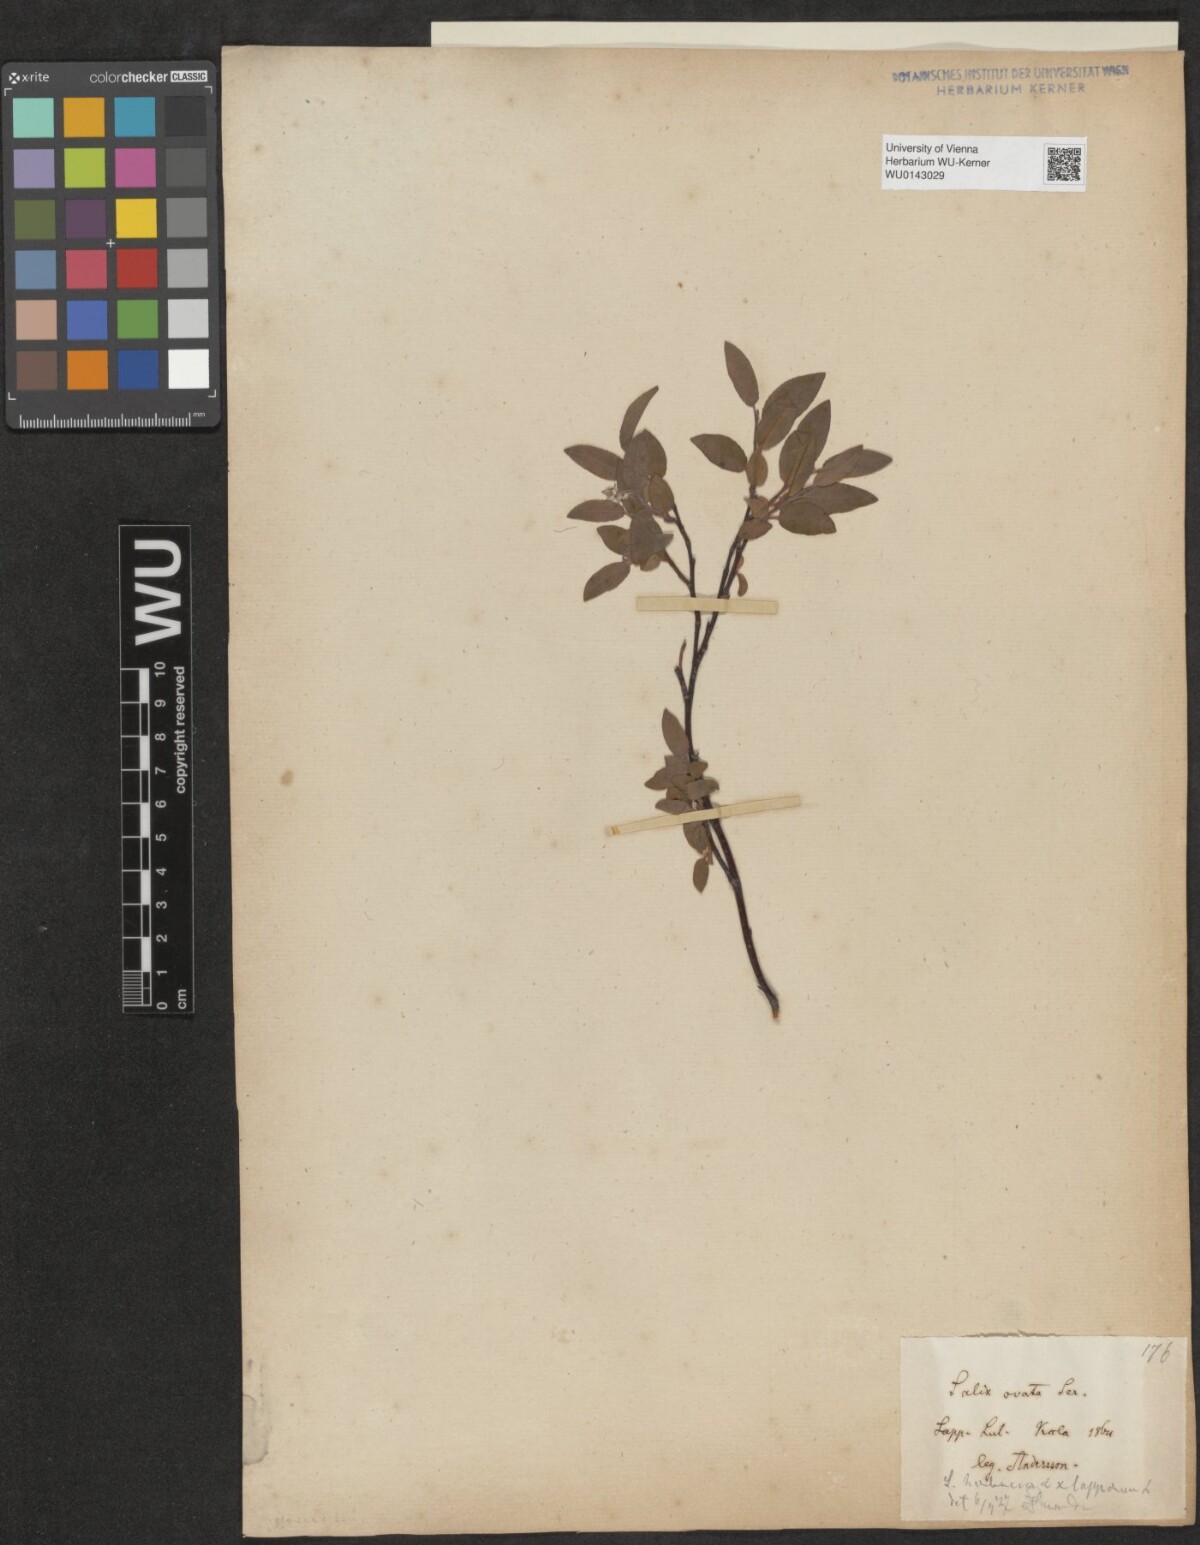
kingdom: Plantae
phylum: Tracheophyta
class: Magnoliopsida
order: Malpighiales
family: Salicaceae
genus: Salix
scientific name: Salix myrsinifolia
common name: Dark-leaved willow
